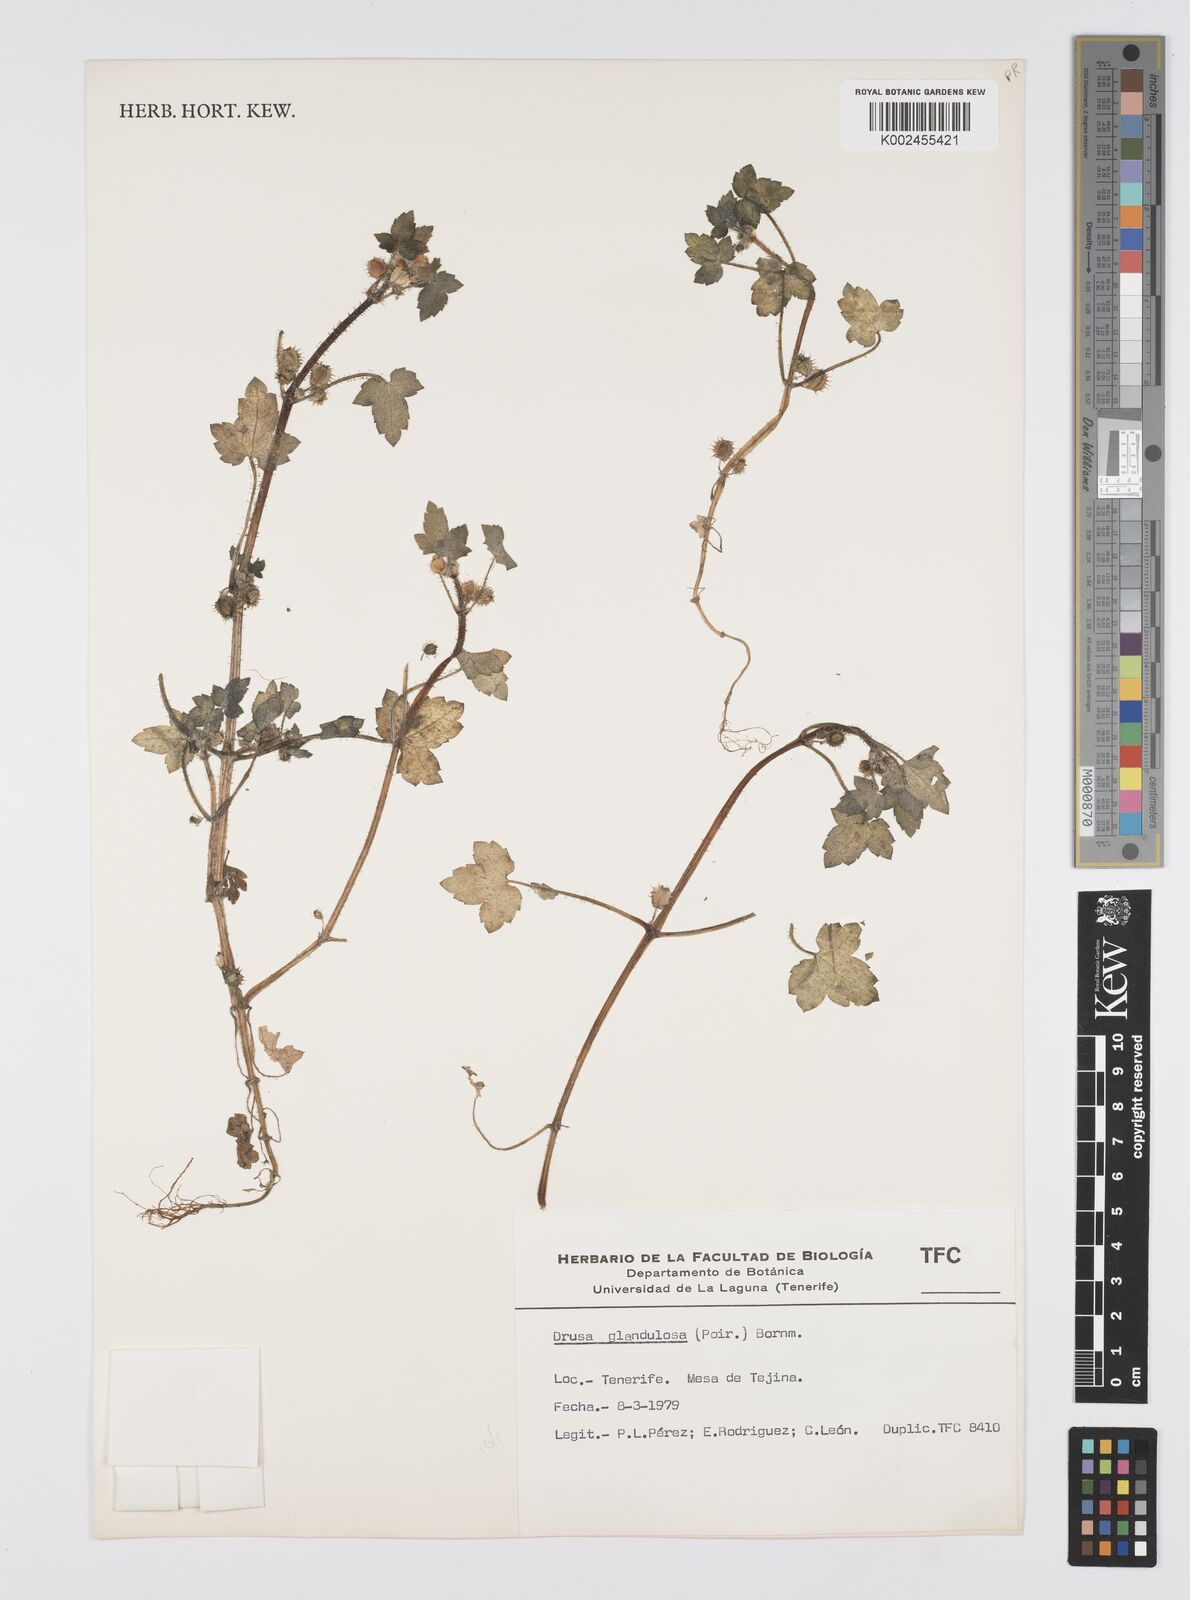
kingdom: Plantae
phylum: Tracheophyta
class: Magnoliopsida
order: Apiales
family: Apiaceae
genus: Drusa
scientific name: Drusa glandulosa
